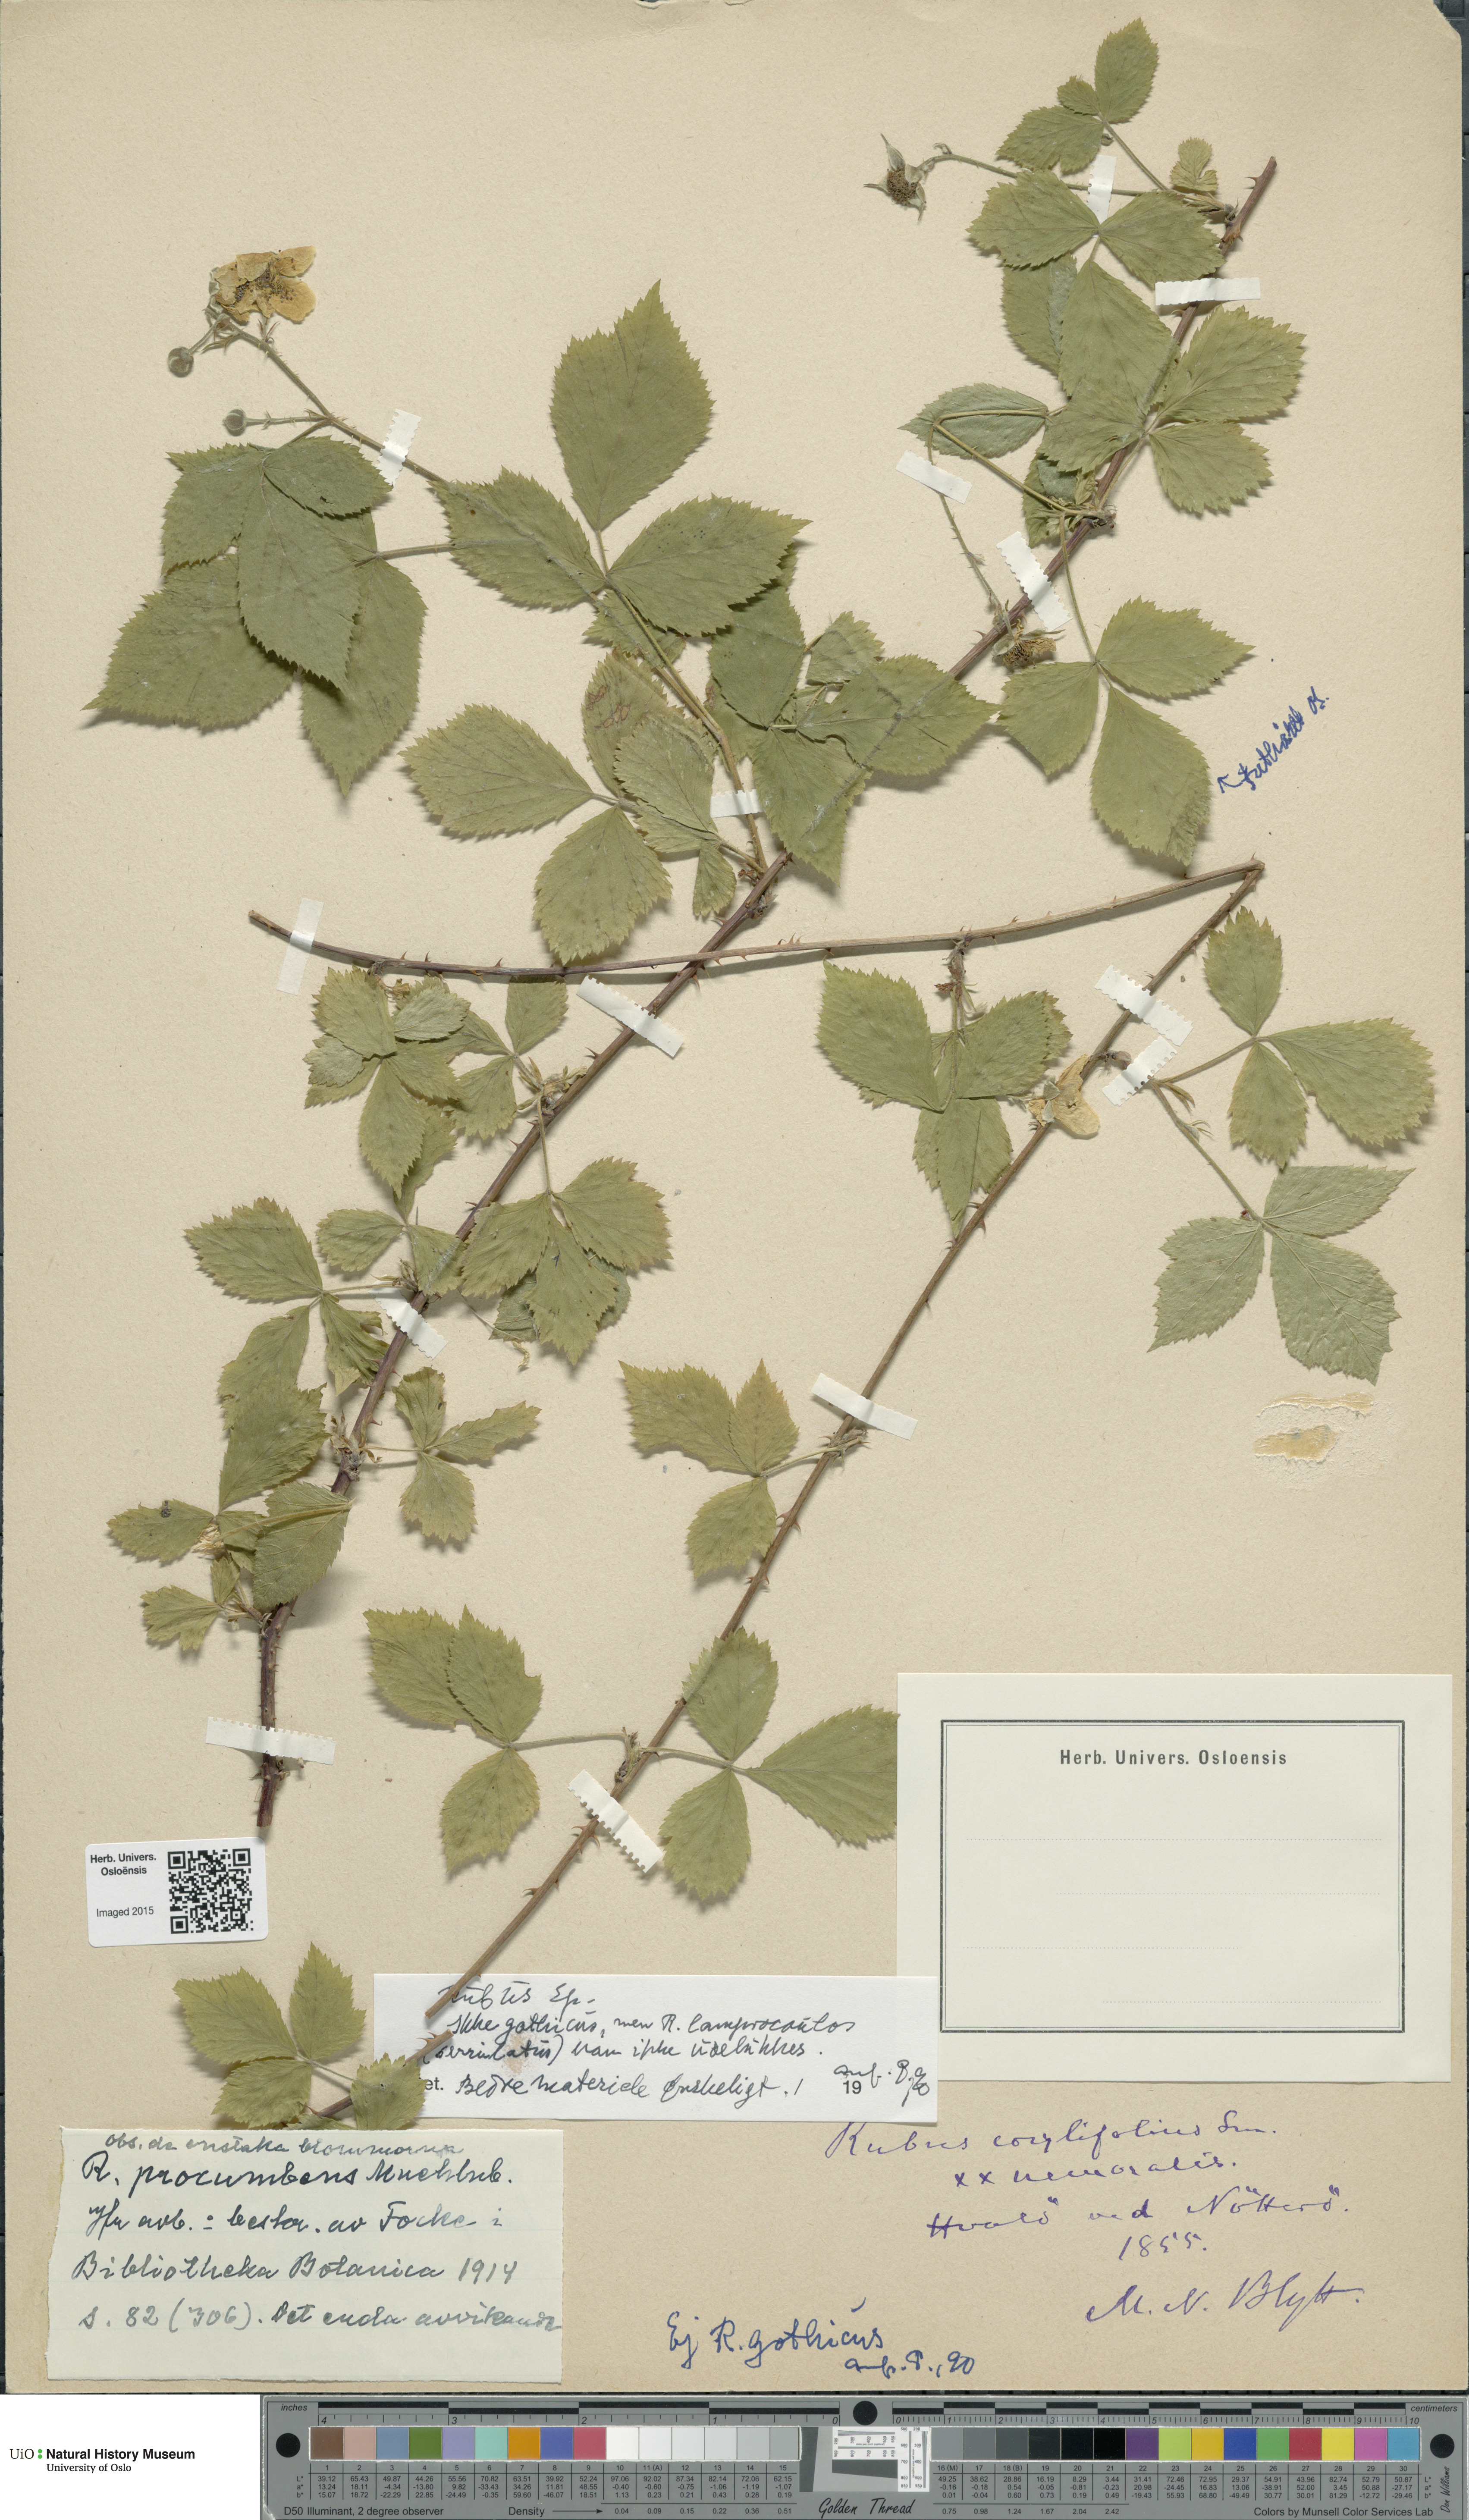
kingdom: Plantae
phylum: Tracheophyta
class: Magnoliopsida
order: Rosales
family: Rosaceae
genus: Rubus
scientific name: Rubus
